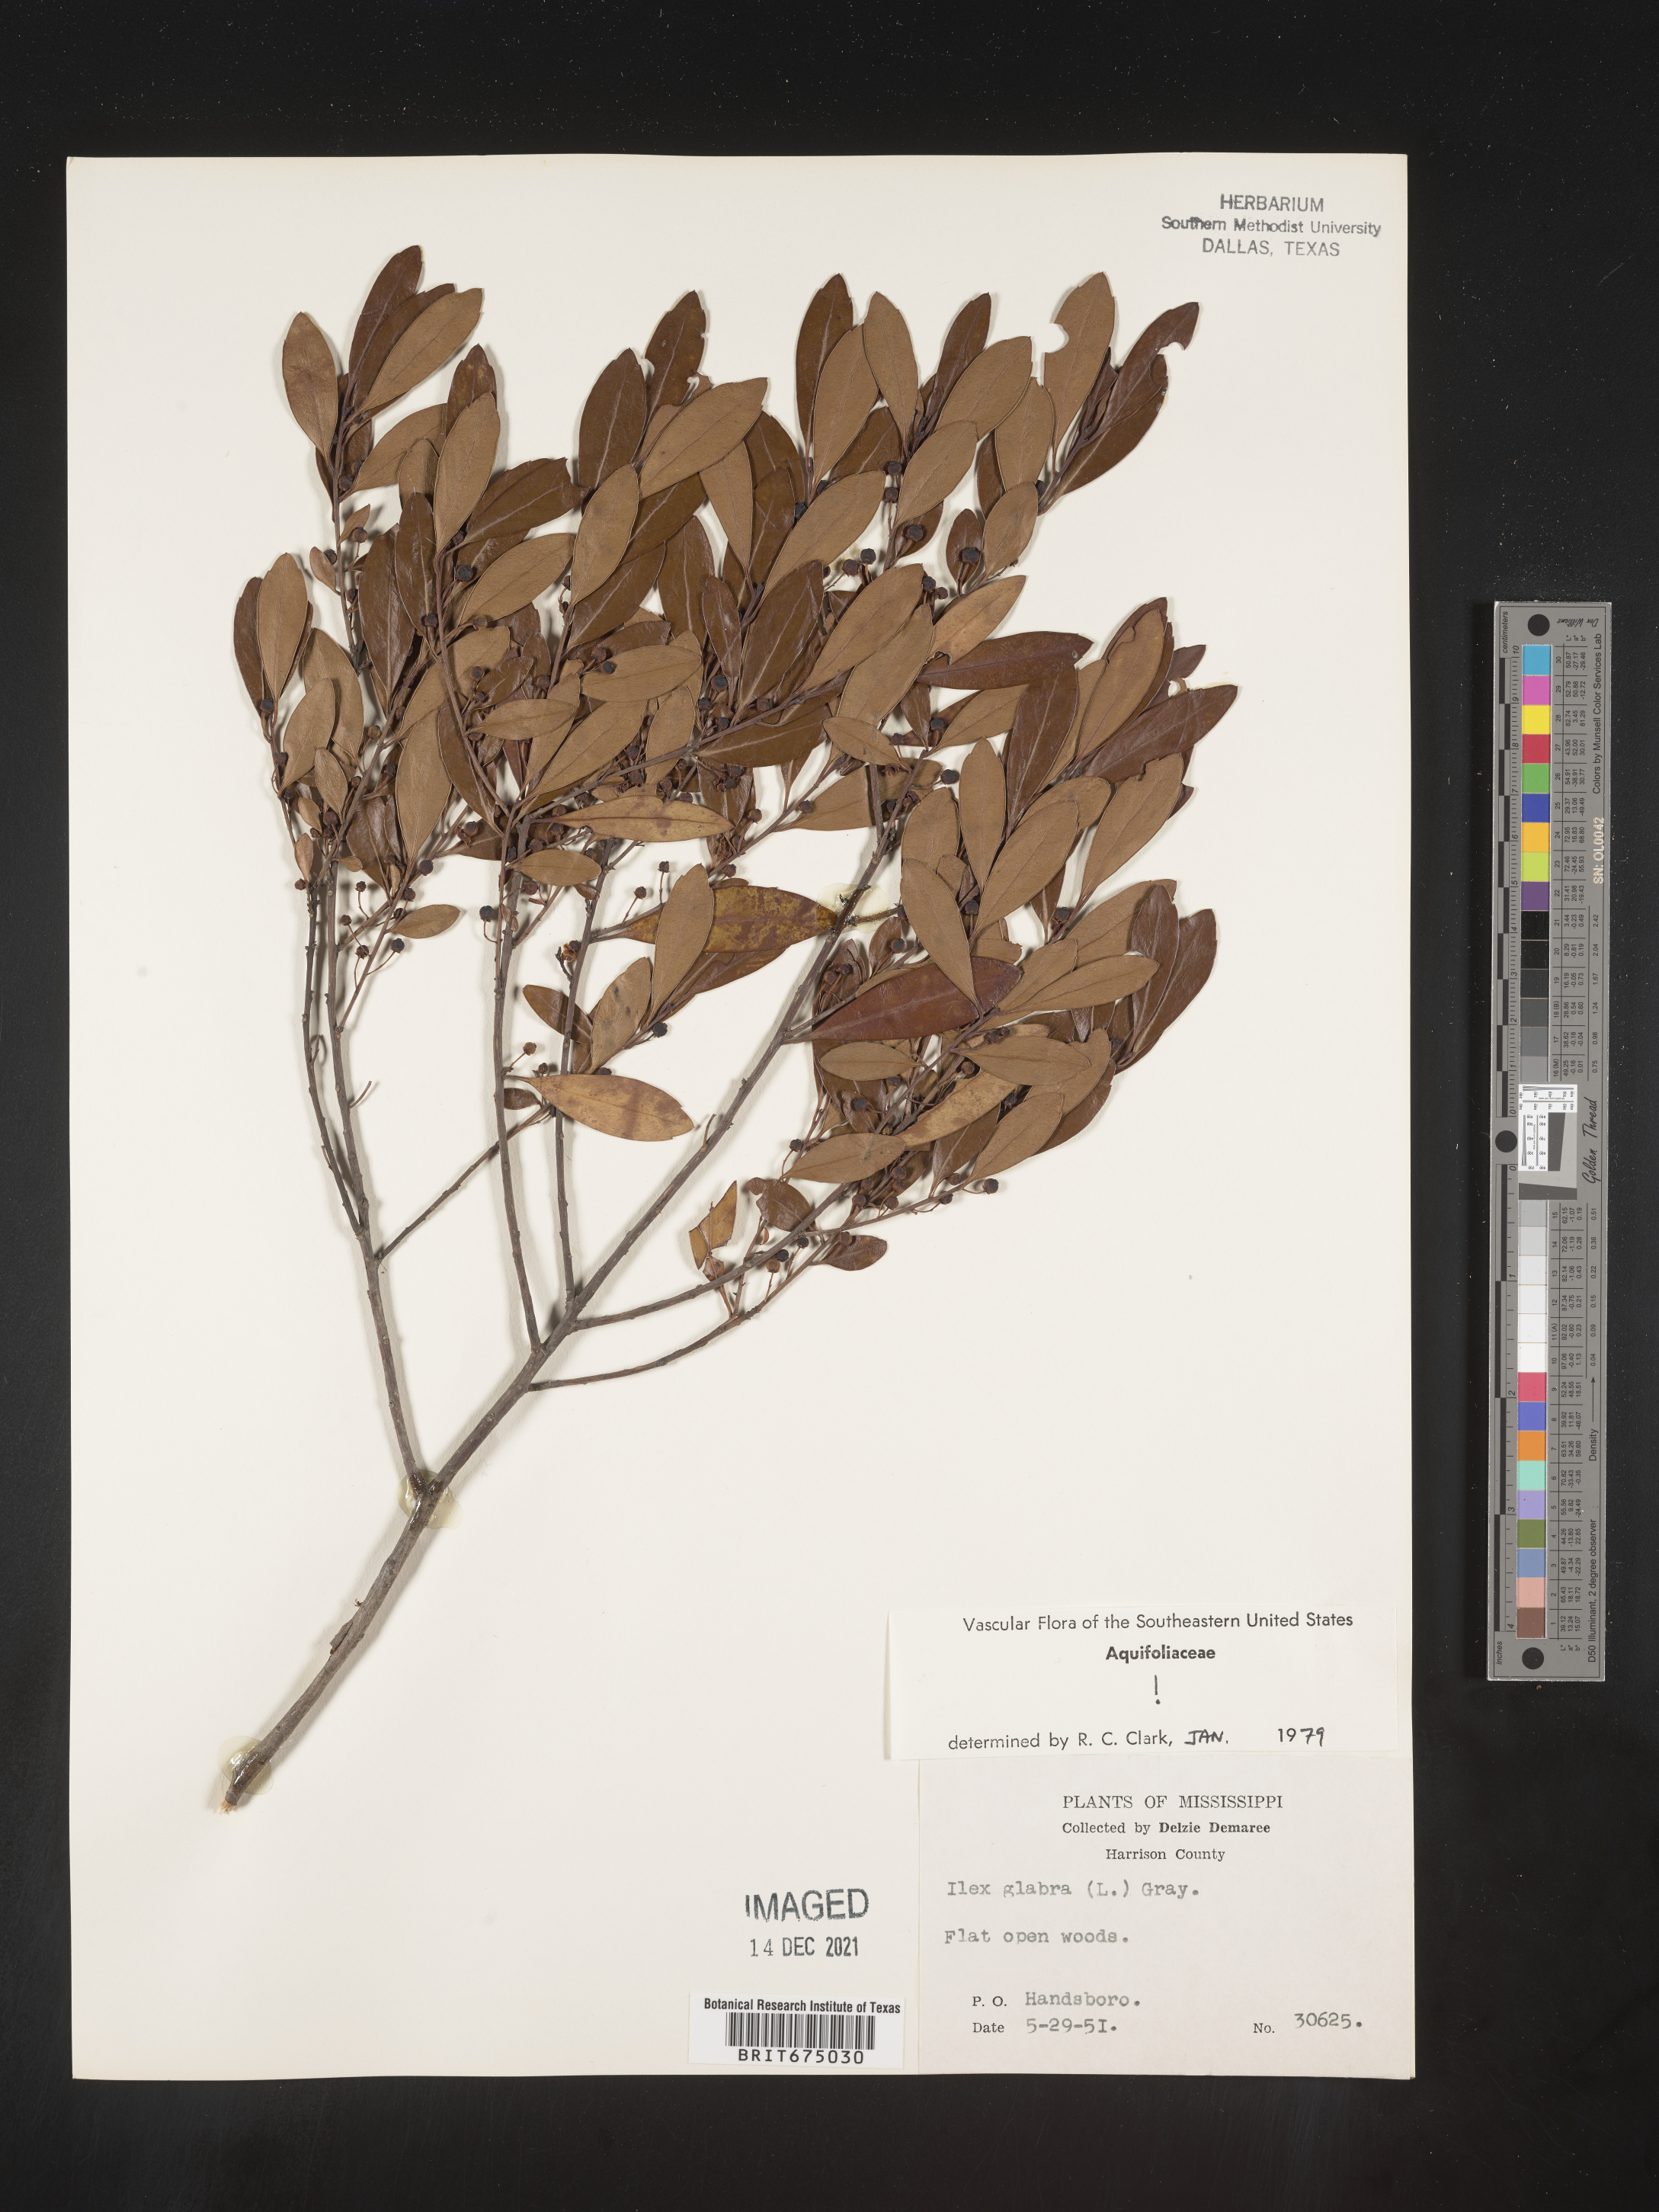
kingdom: Plantae
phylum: Tracheophyta
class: Magnoliopsida
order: Aquifoliales
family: Aquifoliaceae
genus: Ilex
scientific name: Ilex glabra
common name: Bitter gallberry
